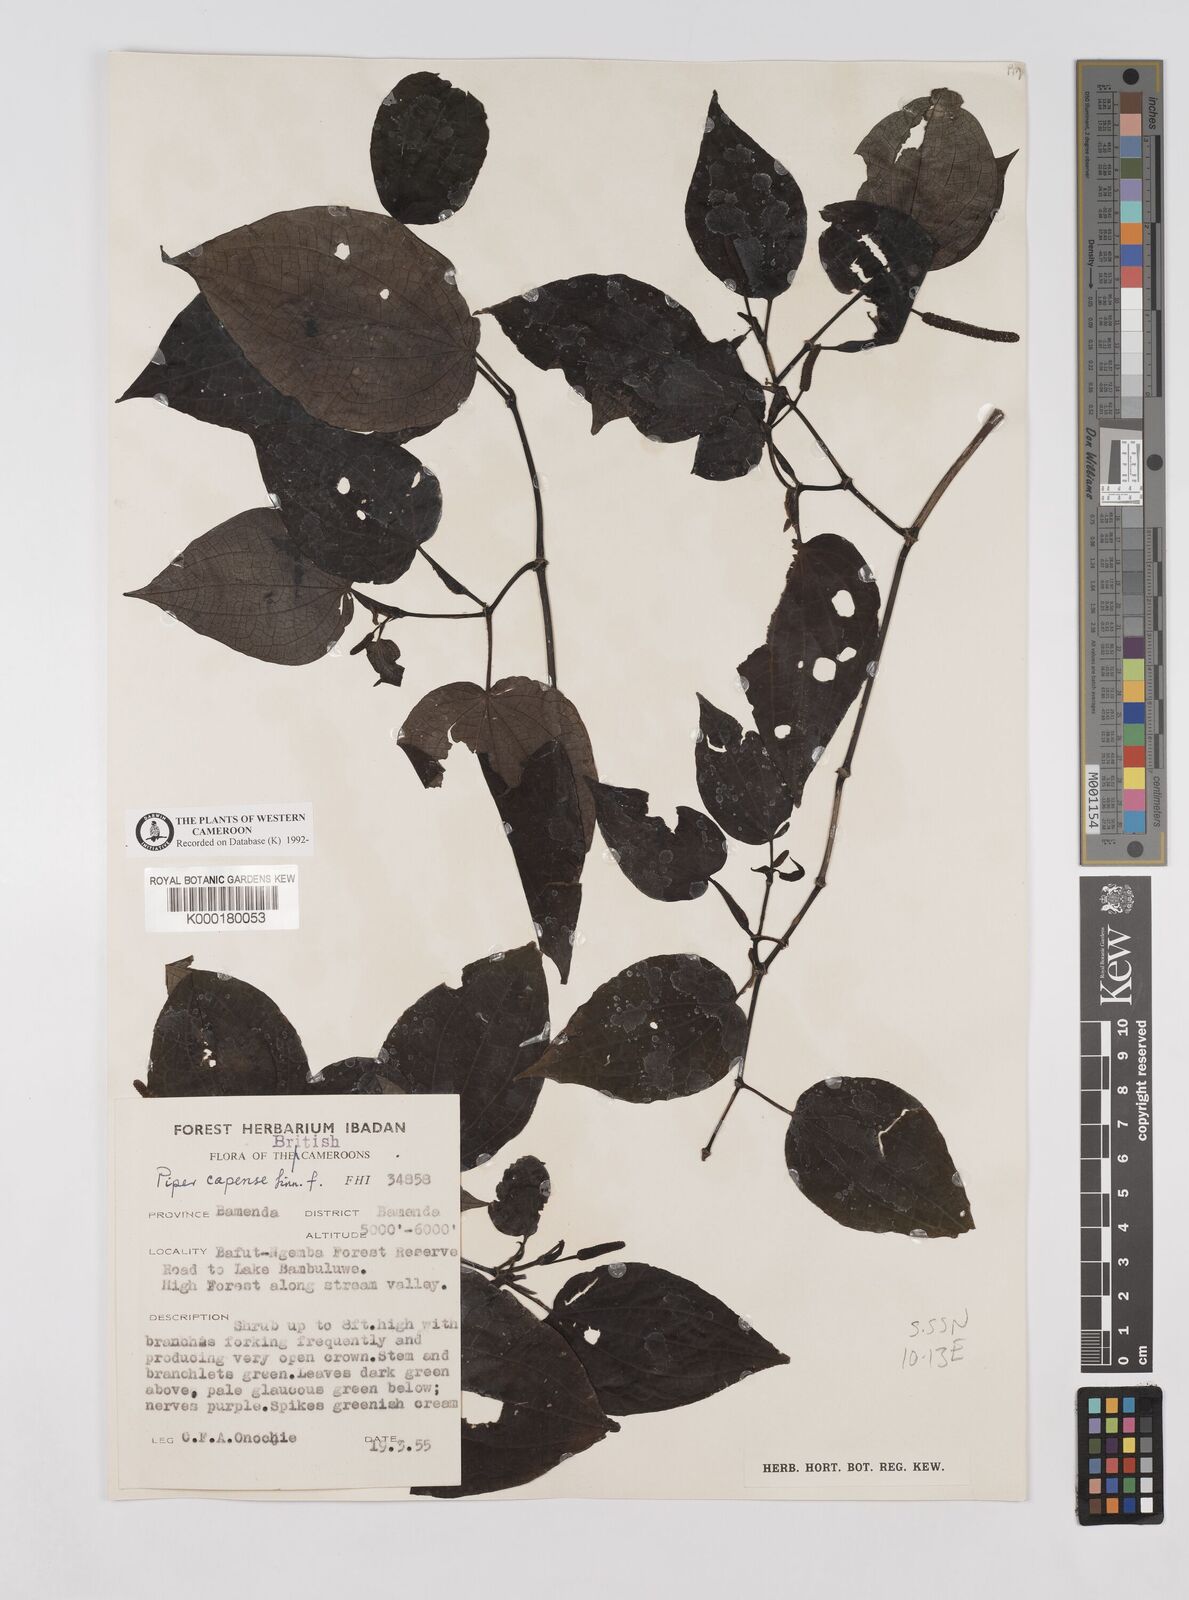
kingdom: Plantae
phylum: Tracheophyta
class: Magnoliopsida
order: Piperales
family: Piperaceae
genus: Piper
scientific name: Piper capense
